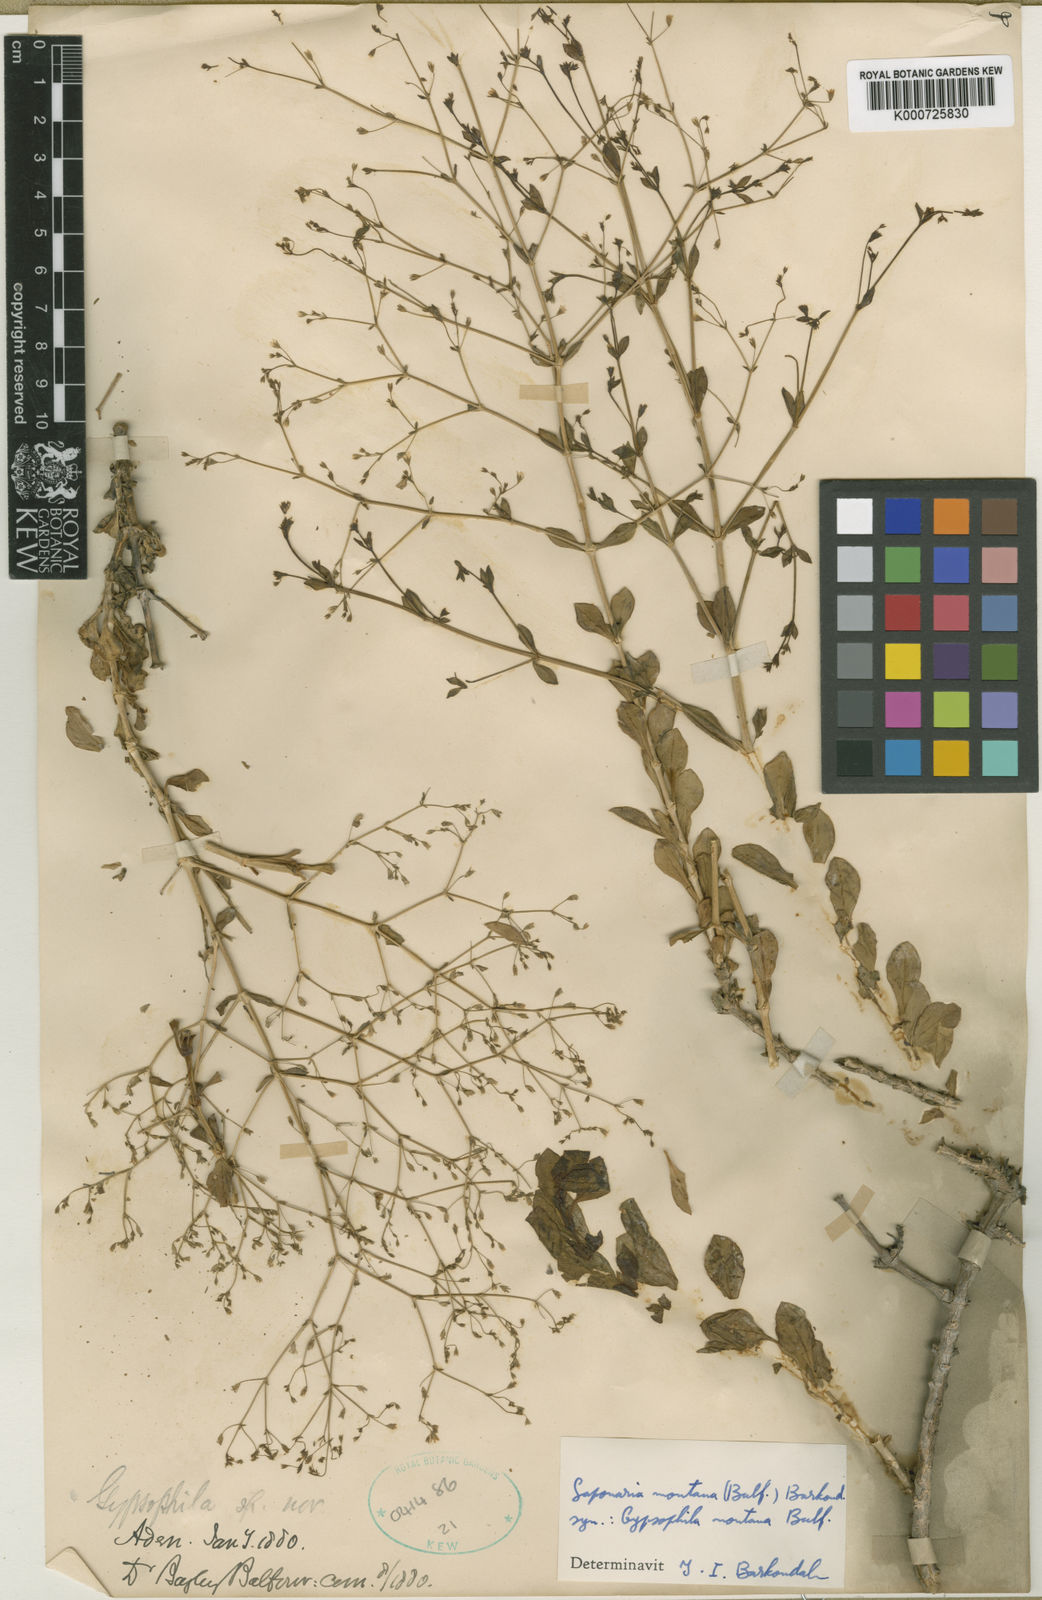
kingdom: Plantae
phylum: Tracheophyta
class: Magnoliopsida
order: Caryophyllales
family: Caryophyllaceae
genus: Petroana
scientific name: Petroana montana
